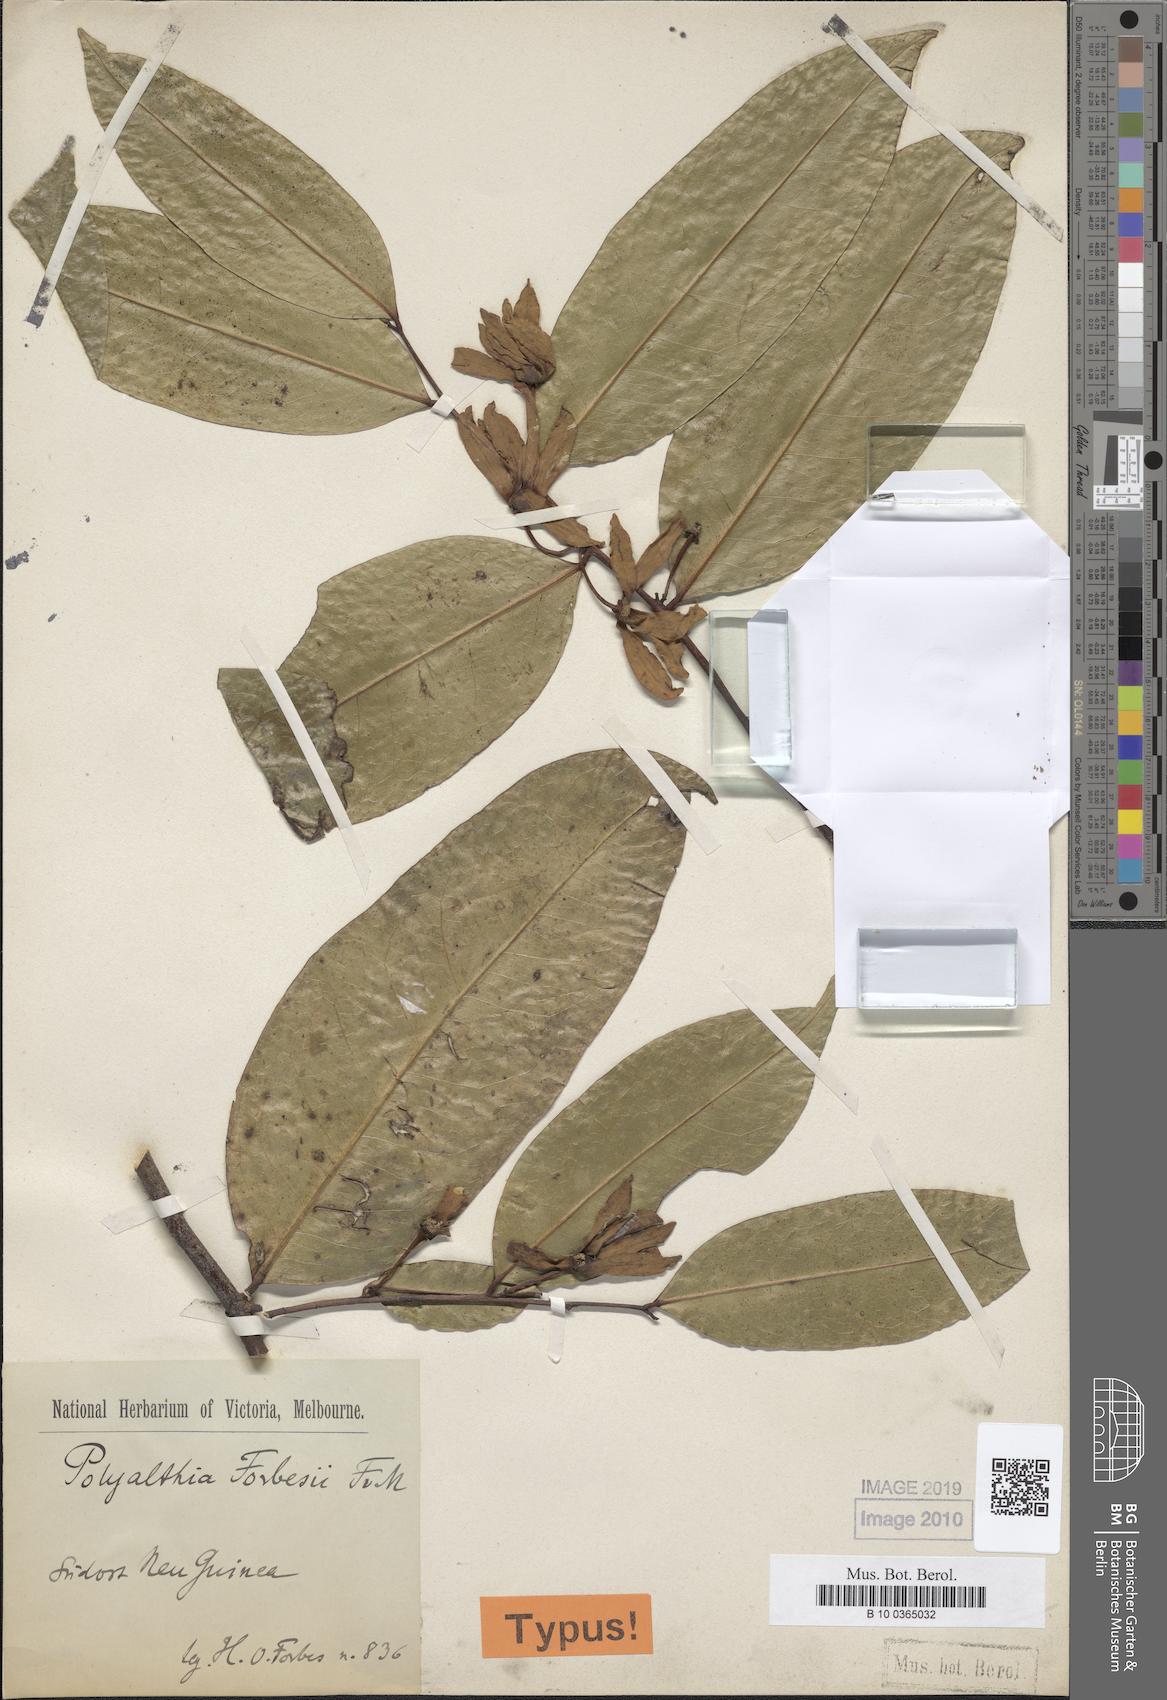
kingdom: Plantae
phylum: Tracheophyta
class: Magnoliopsida
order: Magnoliales
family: Annonaceae
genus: Hubera
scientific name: Hubera forbesii
